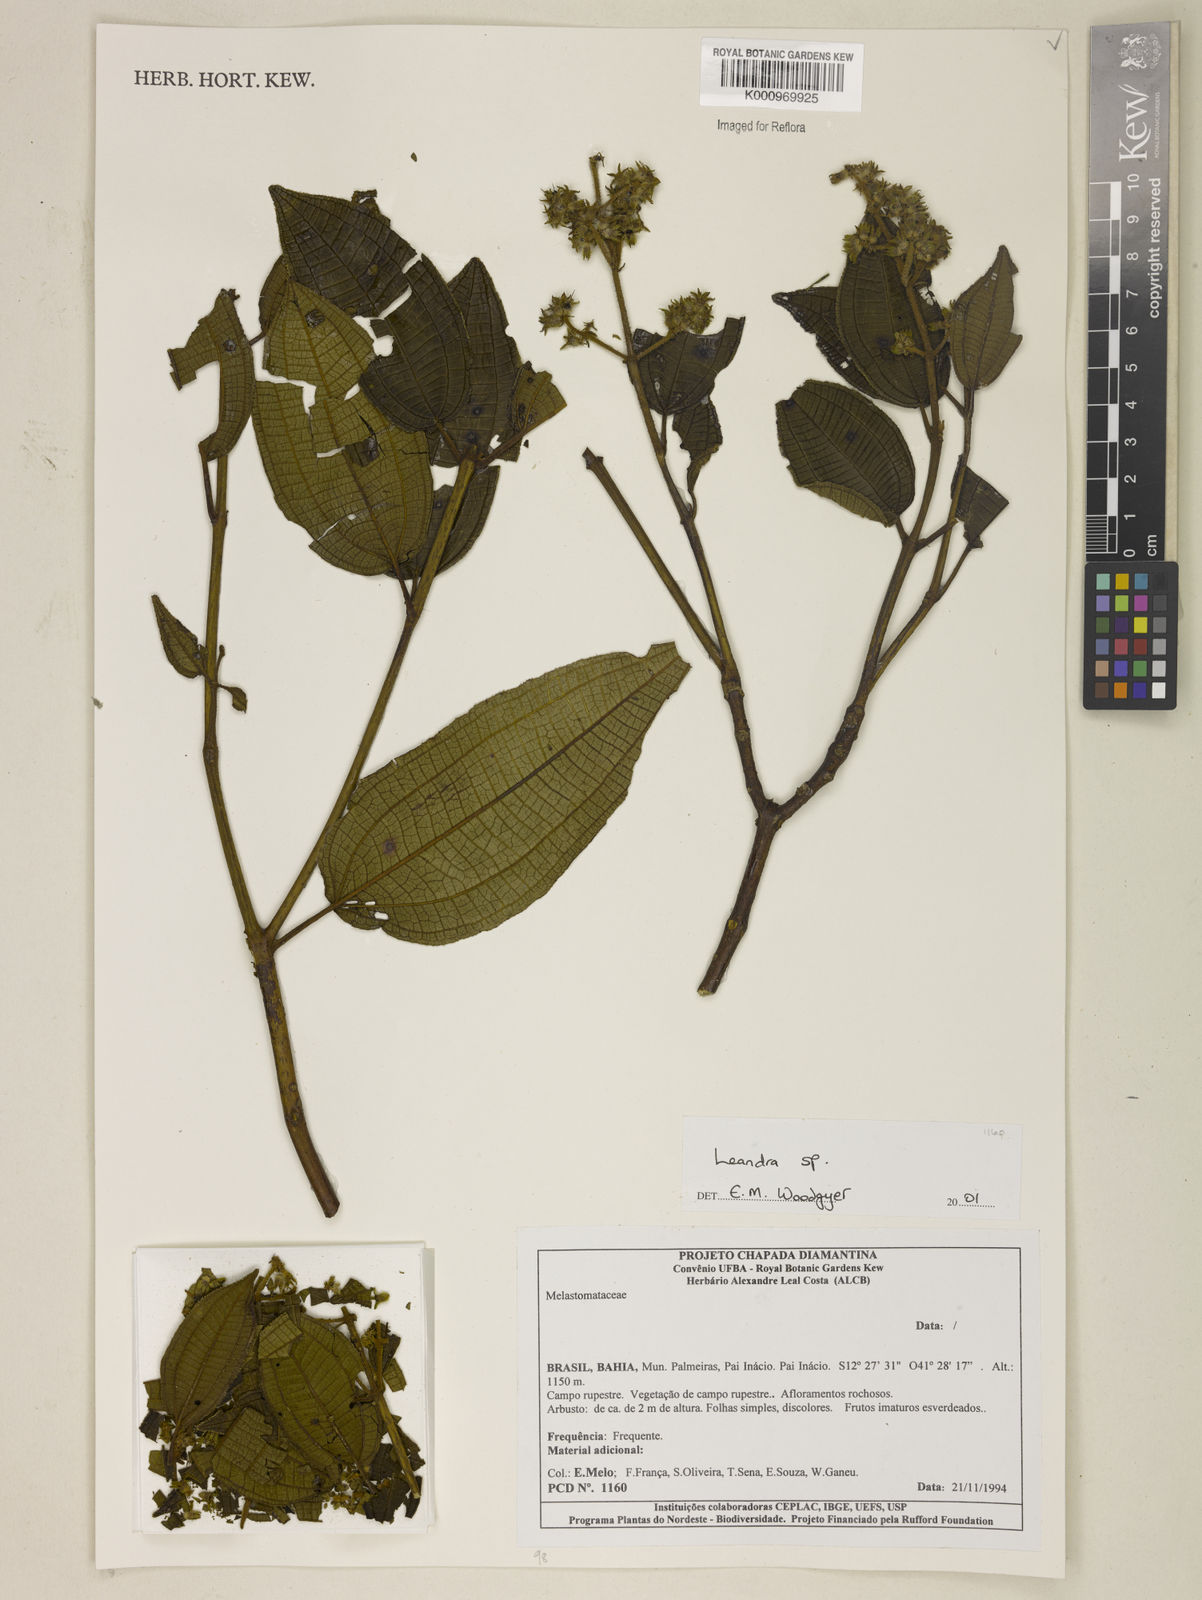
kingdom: Plantae
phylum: Tracheophyta
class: Magnoliopsida
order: Myrtales
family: Melastomataceae
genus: Miconia
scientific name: Miconia
